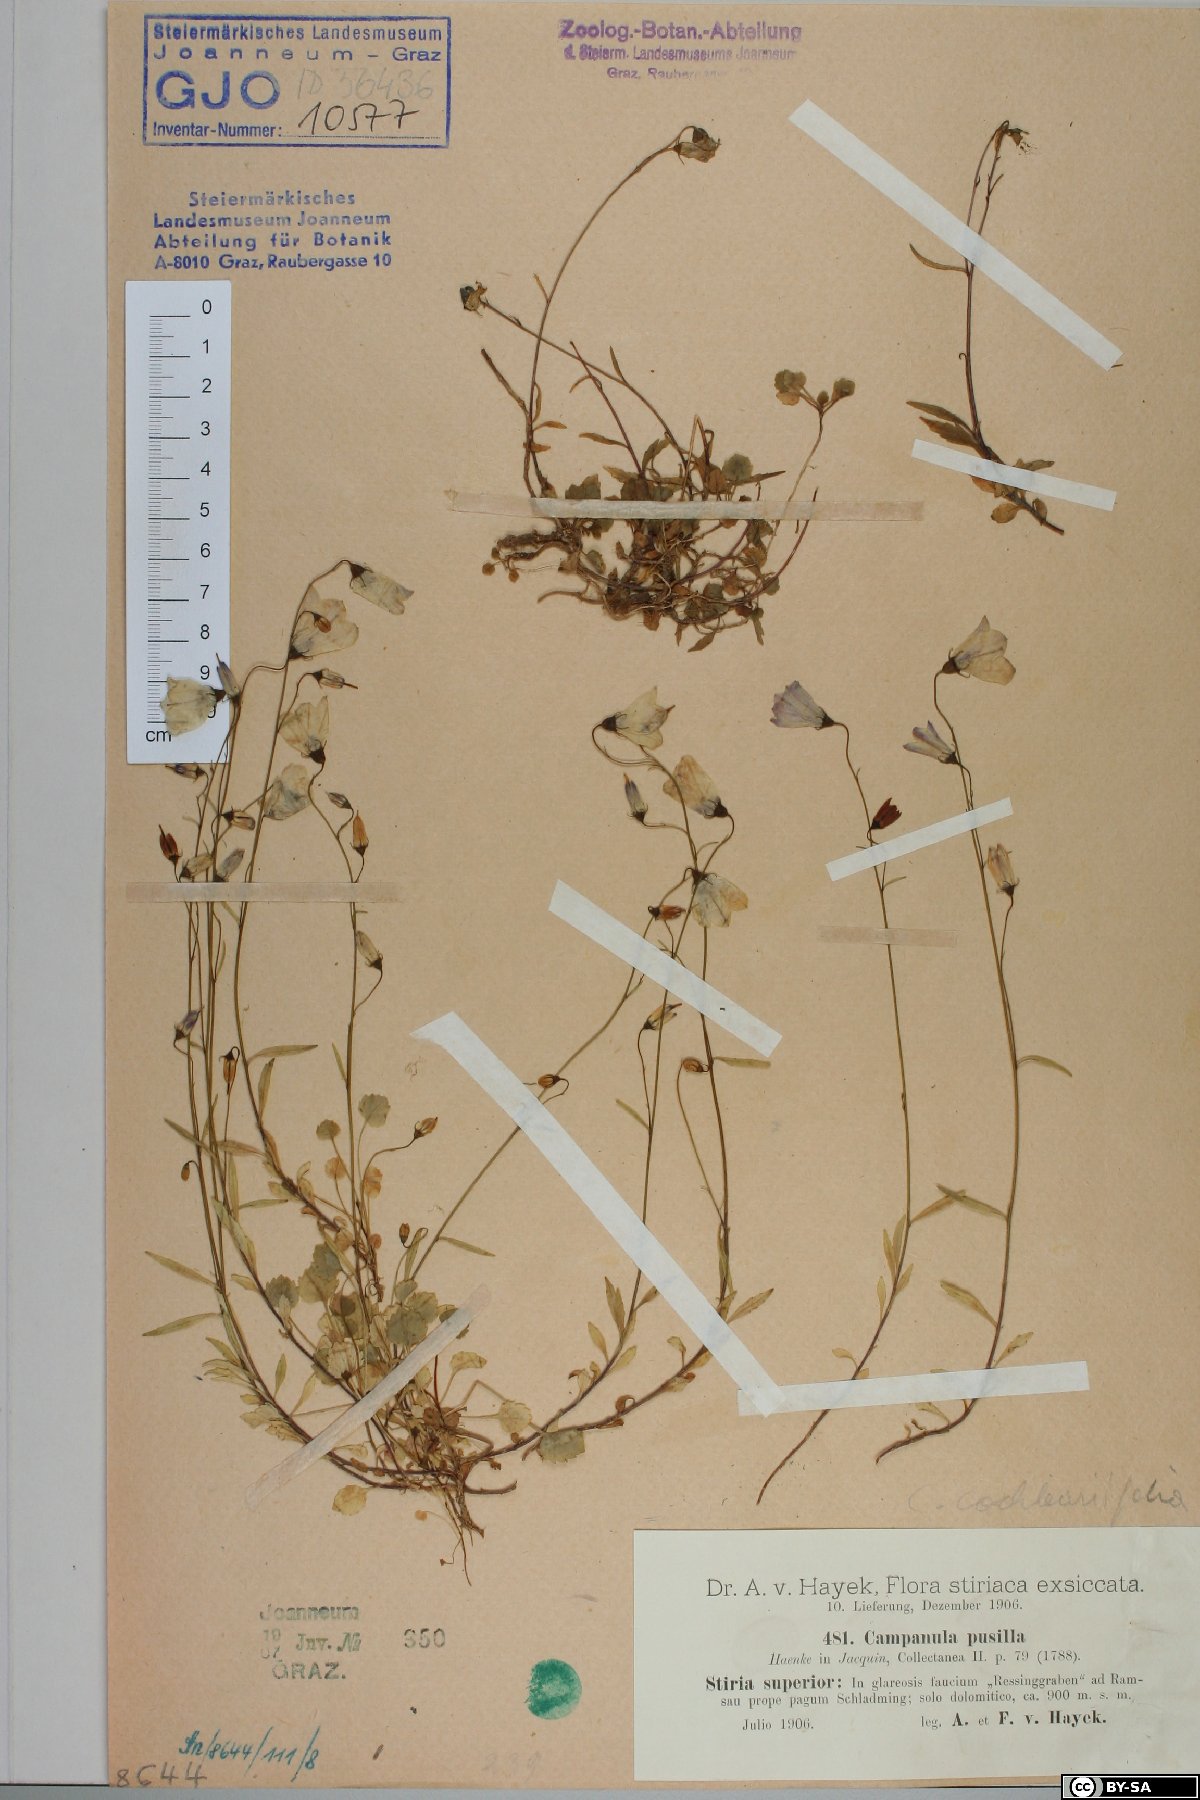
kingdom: Plantae
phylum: Tracheophyta
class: Magnoliopsida
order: Asterales
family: Campanulaceae
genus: Campanula
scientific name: Campanula cochleariifolia
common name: Fairies'-thimbles
